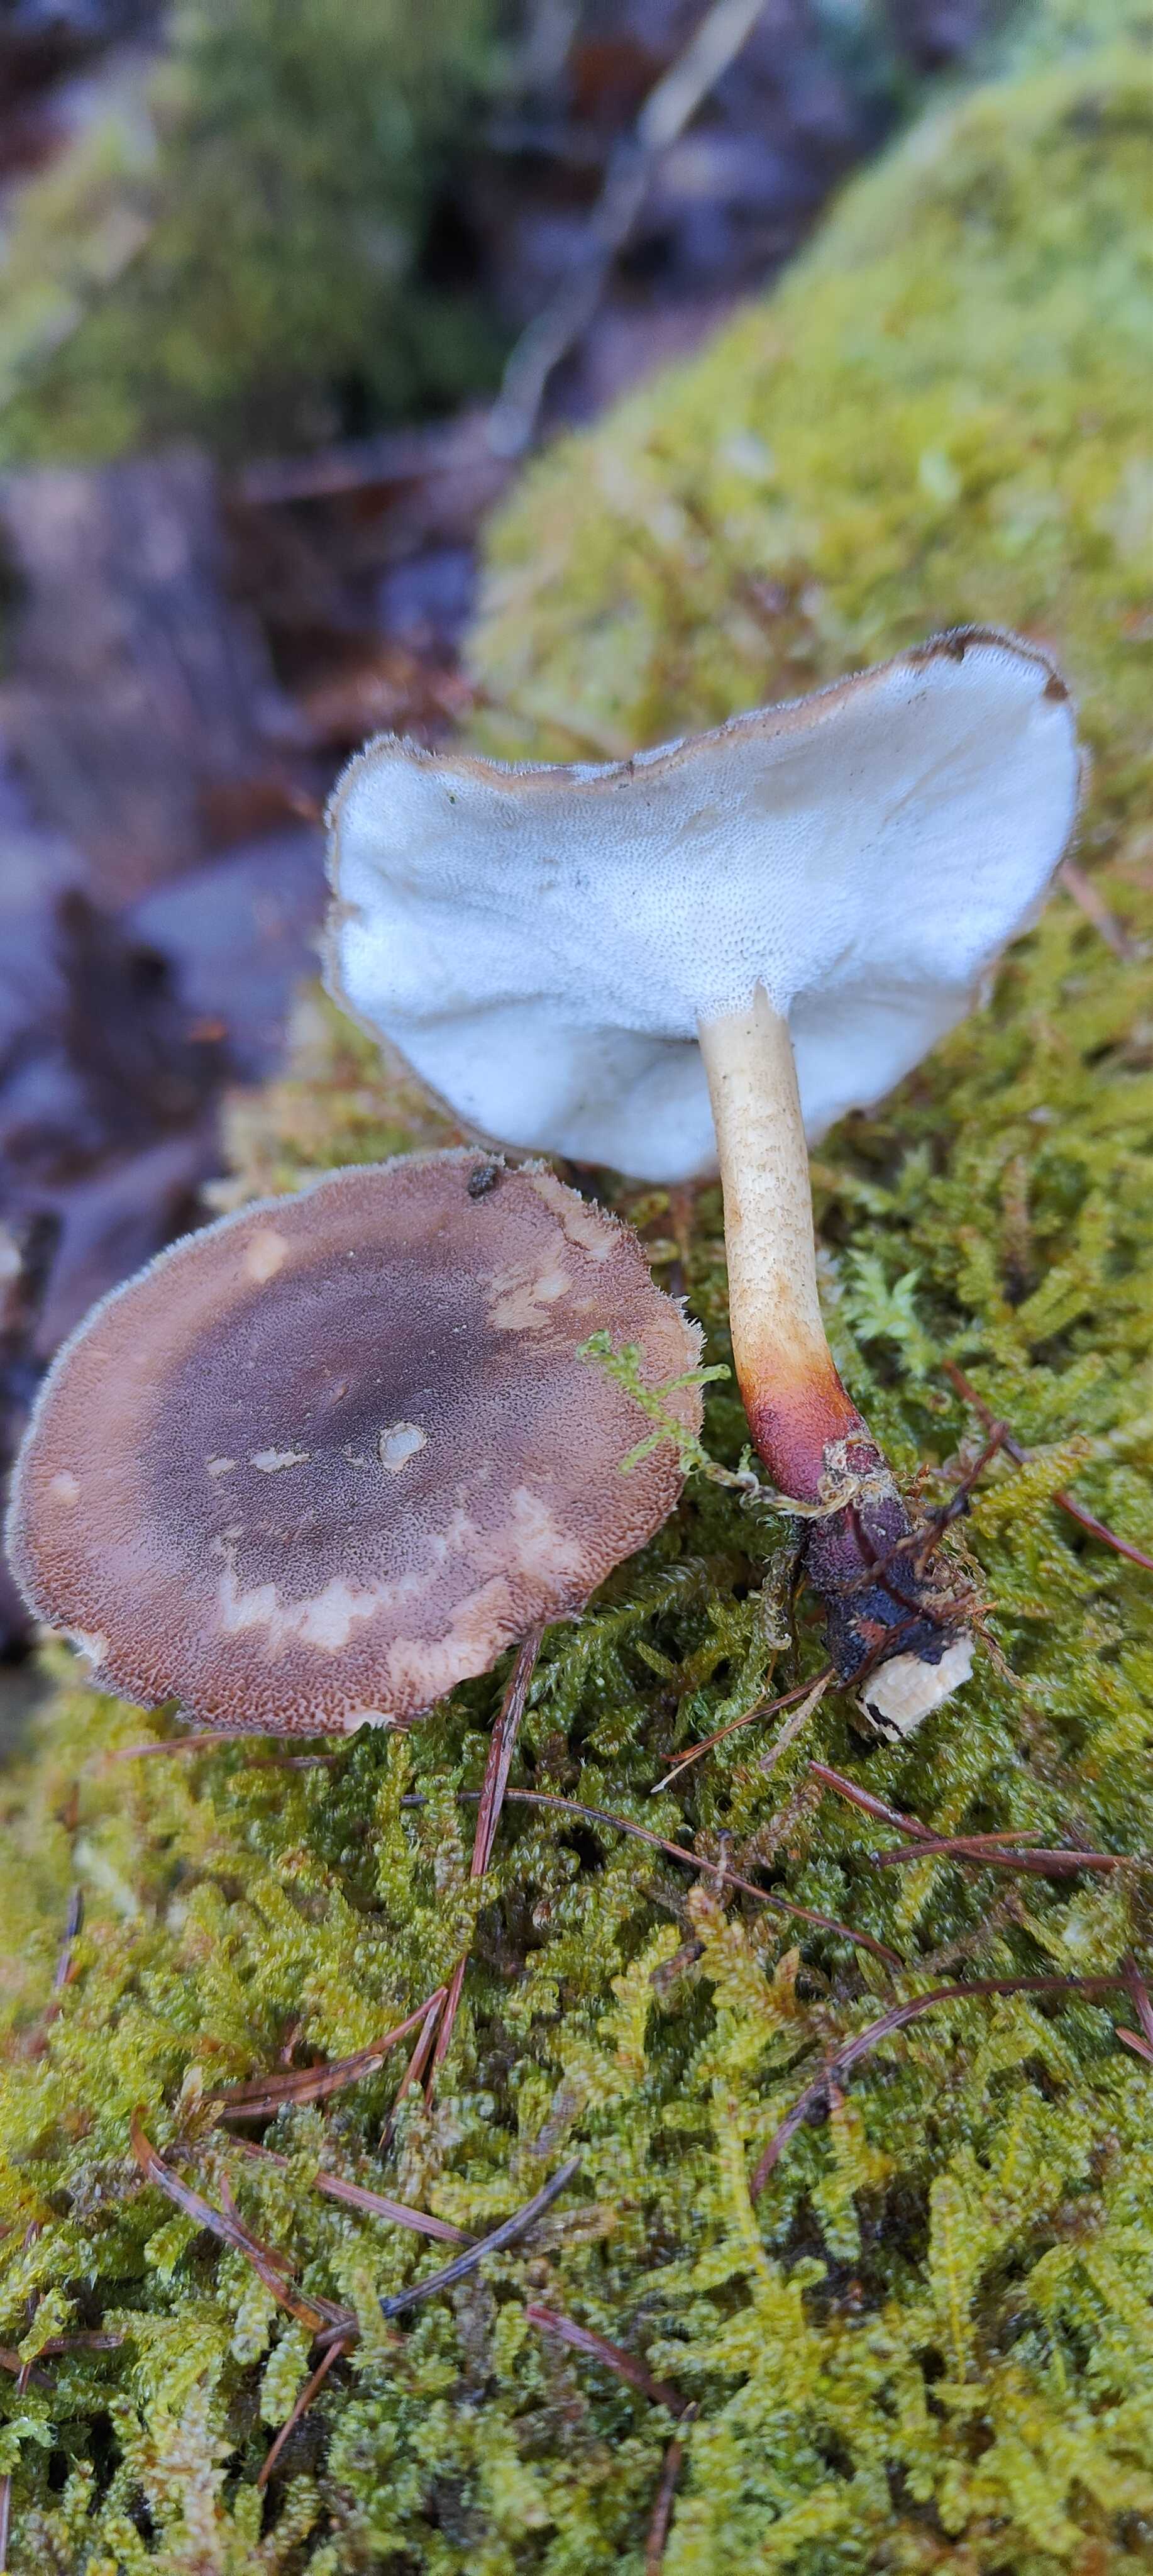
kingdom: Fungi
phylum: Basidiomycota
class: Agaricomycetes
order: Polyporales
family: Polyporaceae
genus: Lentinus
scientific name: Lentinus brumalis
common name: vinter-stilkporesvamp
